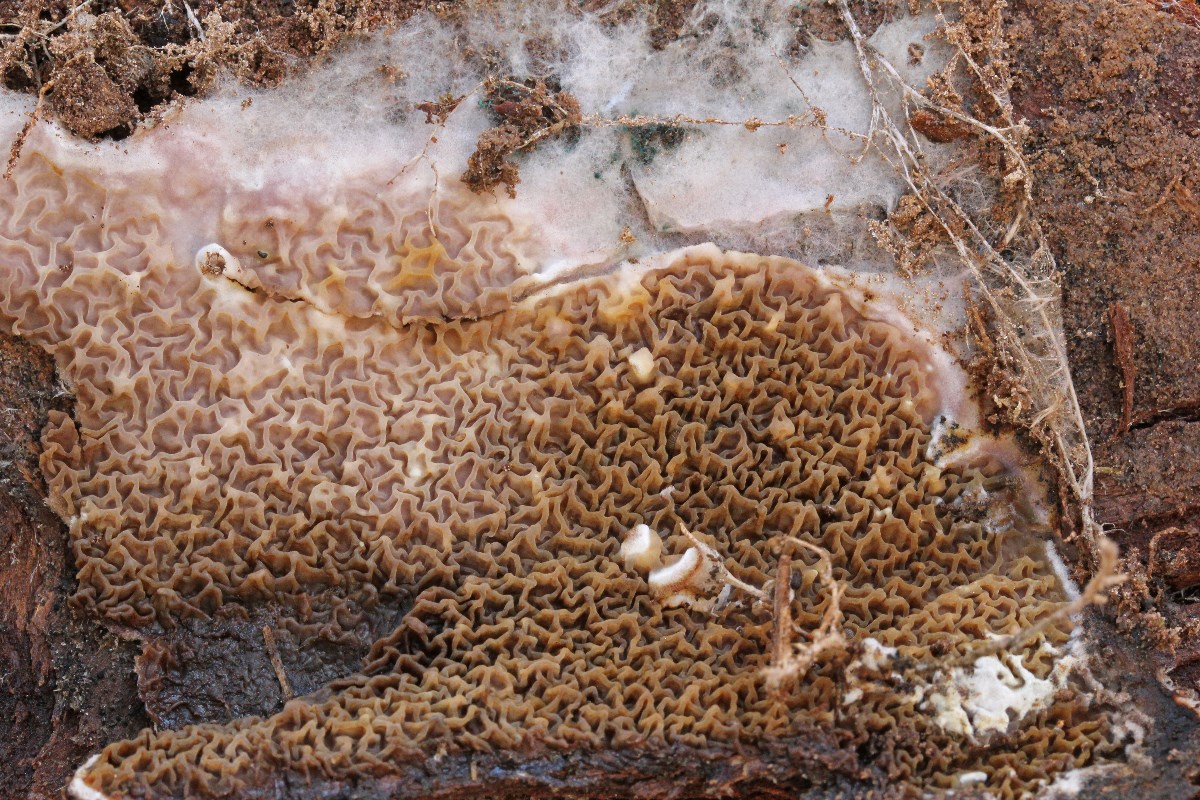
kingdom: Fungi
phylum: Basidiomycota
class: Agaricomycetes
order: Boletales
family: Serpulaceae
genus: Serpula
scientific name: Serpula himantioides
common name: tyndkødet hussvamp
